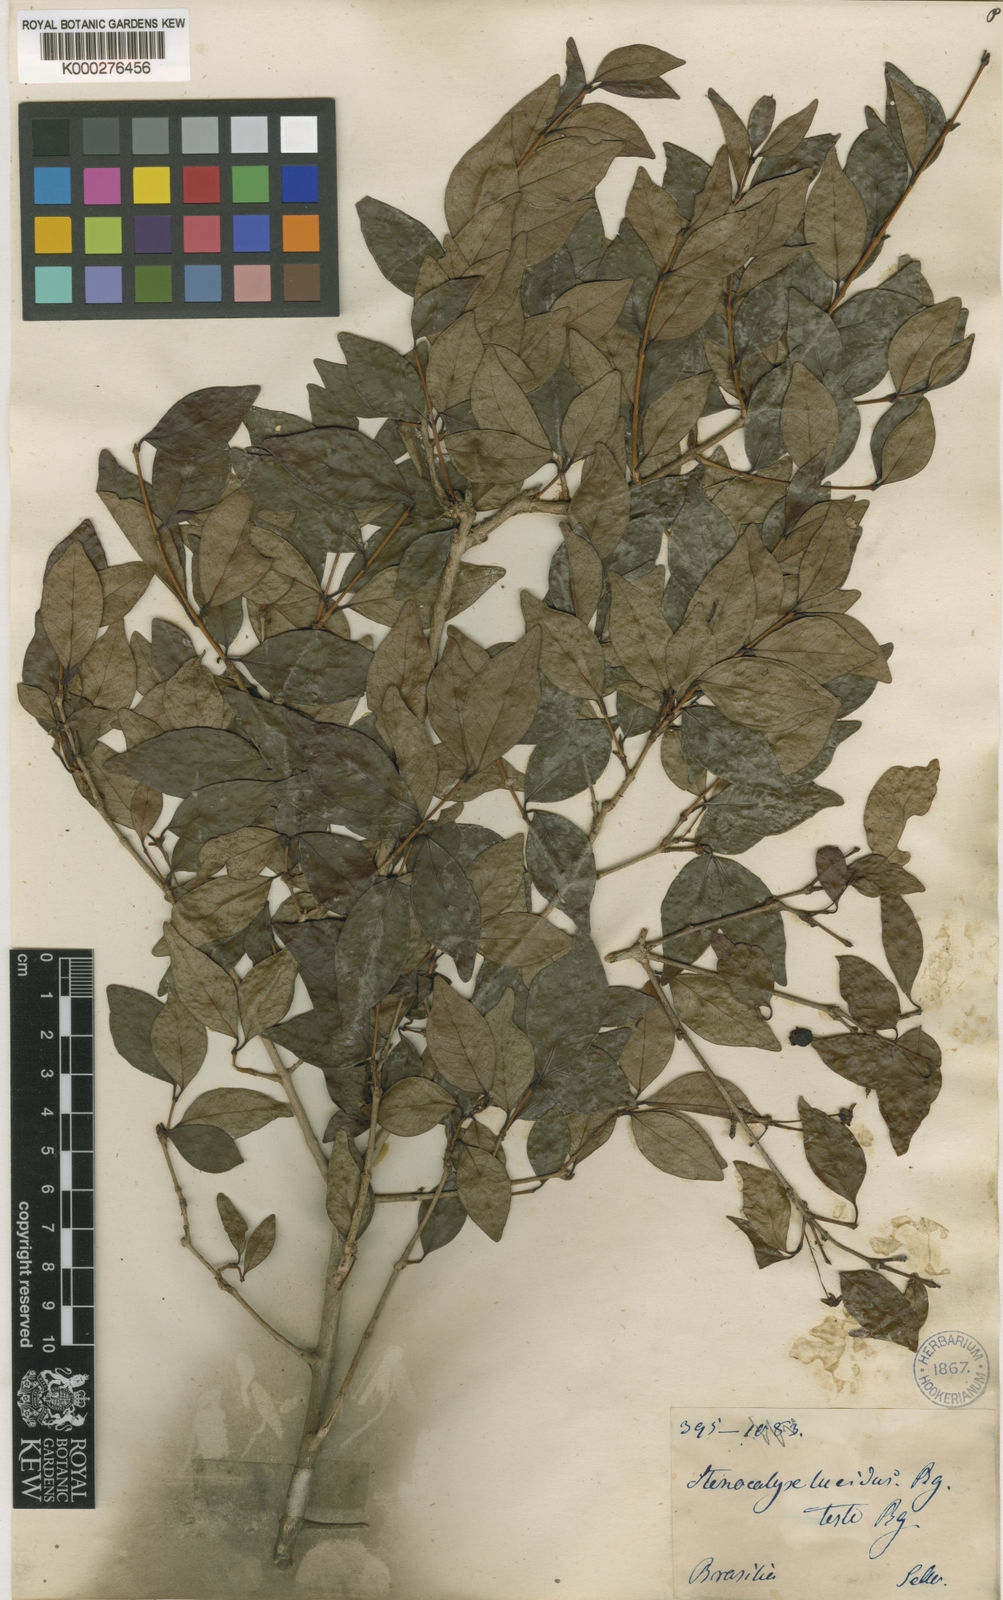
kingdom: Plantae
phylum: Tracheophyta
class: Magnoliopsida
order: Myrtales
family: Myrtaceae
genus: Eugenia
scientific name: Eugenia uniflora
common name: Surinam cherry
